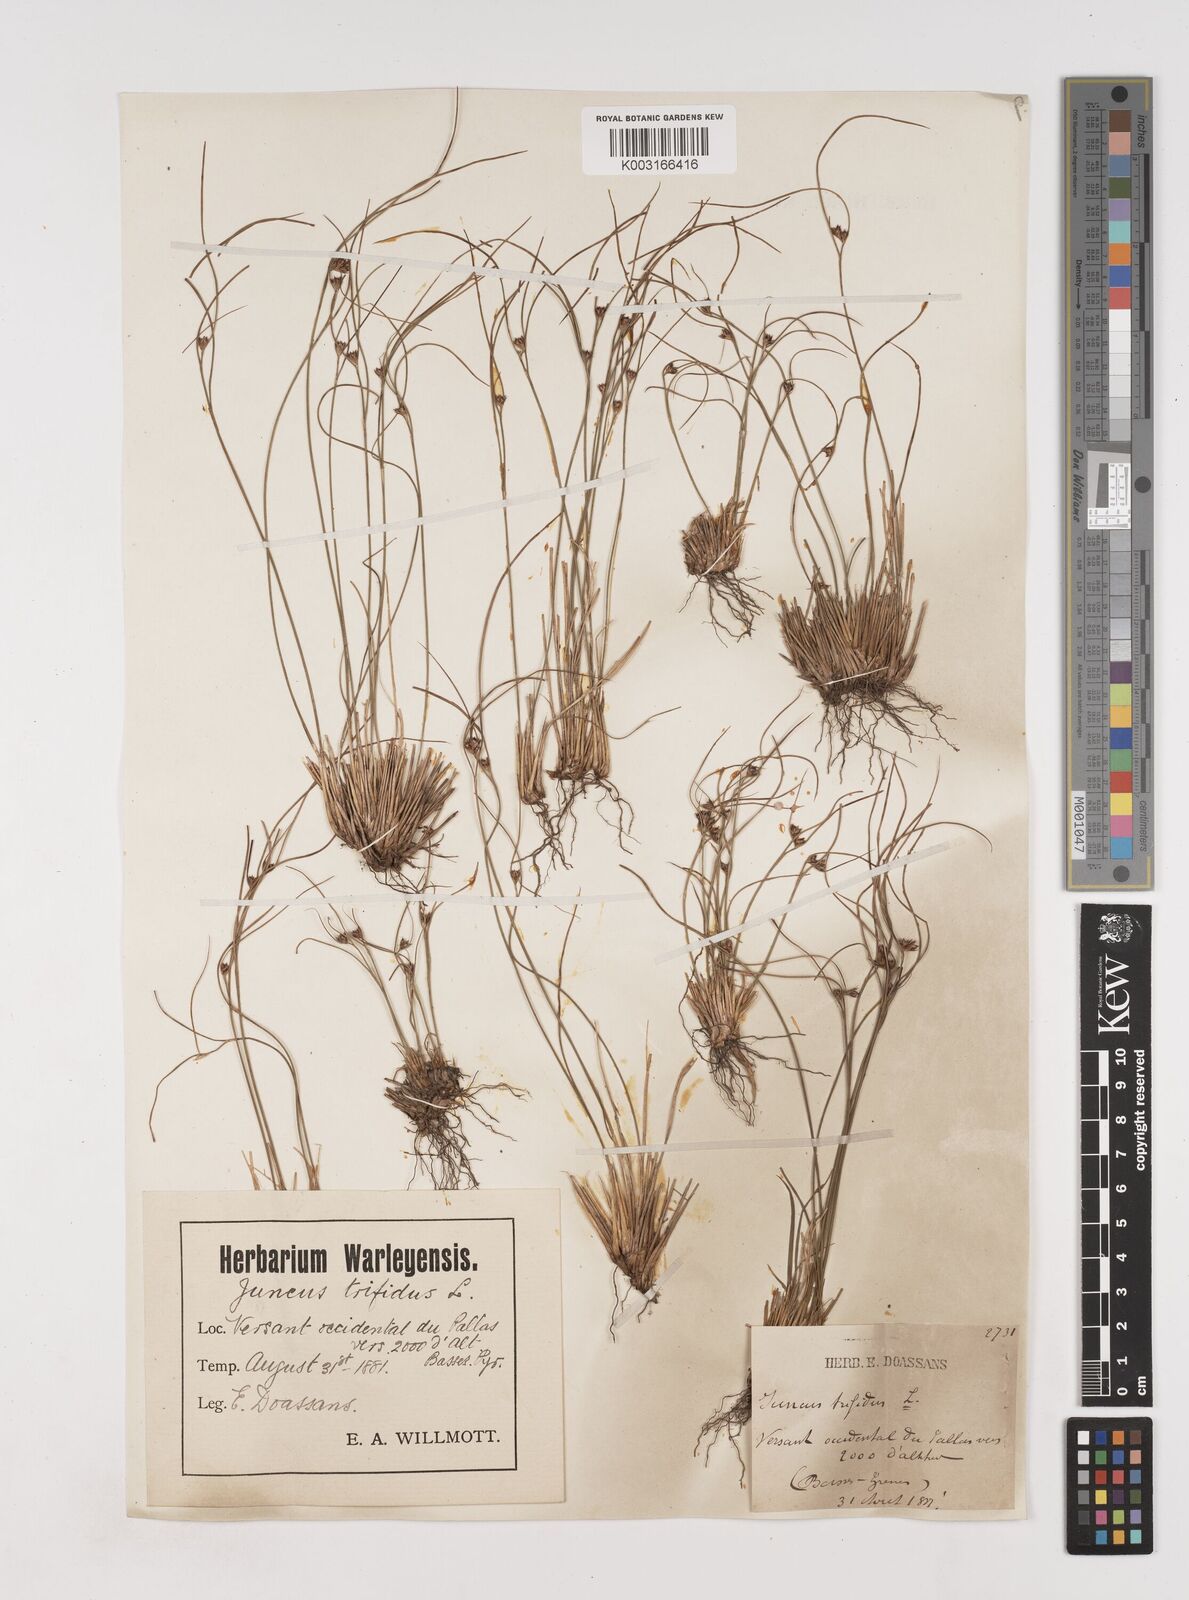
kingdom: Plantae
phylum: Tracheophyta
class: Liliopsida
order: Poales
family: Juncaceae
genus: Oreojuncus
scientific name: Oreojuncus trifidus
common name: Highland rush
